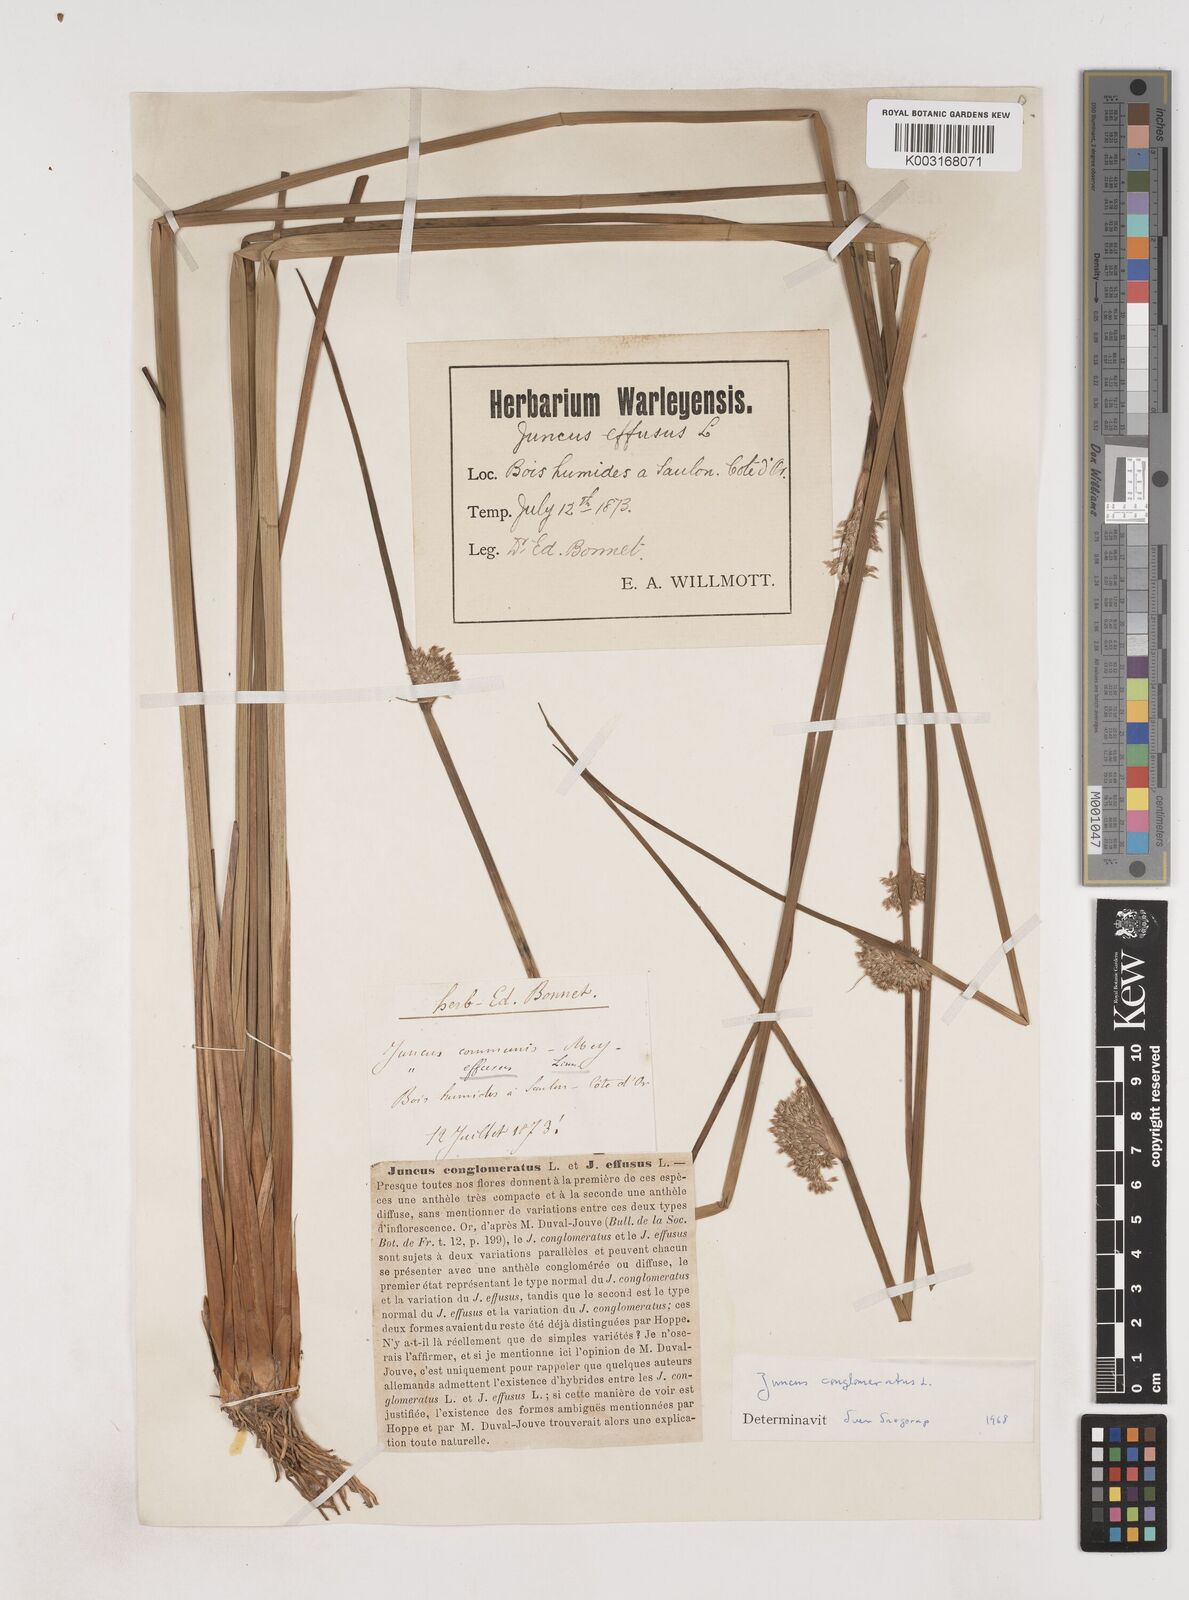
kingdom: Plantae
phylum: Tracheophyta
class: Liliopsida
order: Poales
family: Juncaceae
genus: Juncus
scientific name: Juncus conglomeratus
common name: Compact rush
